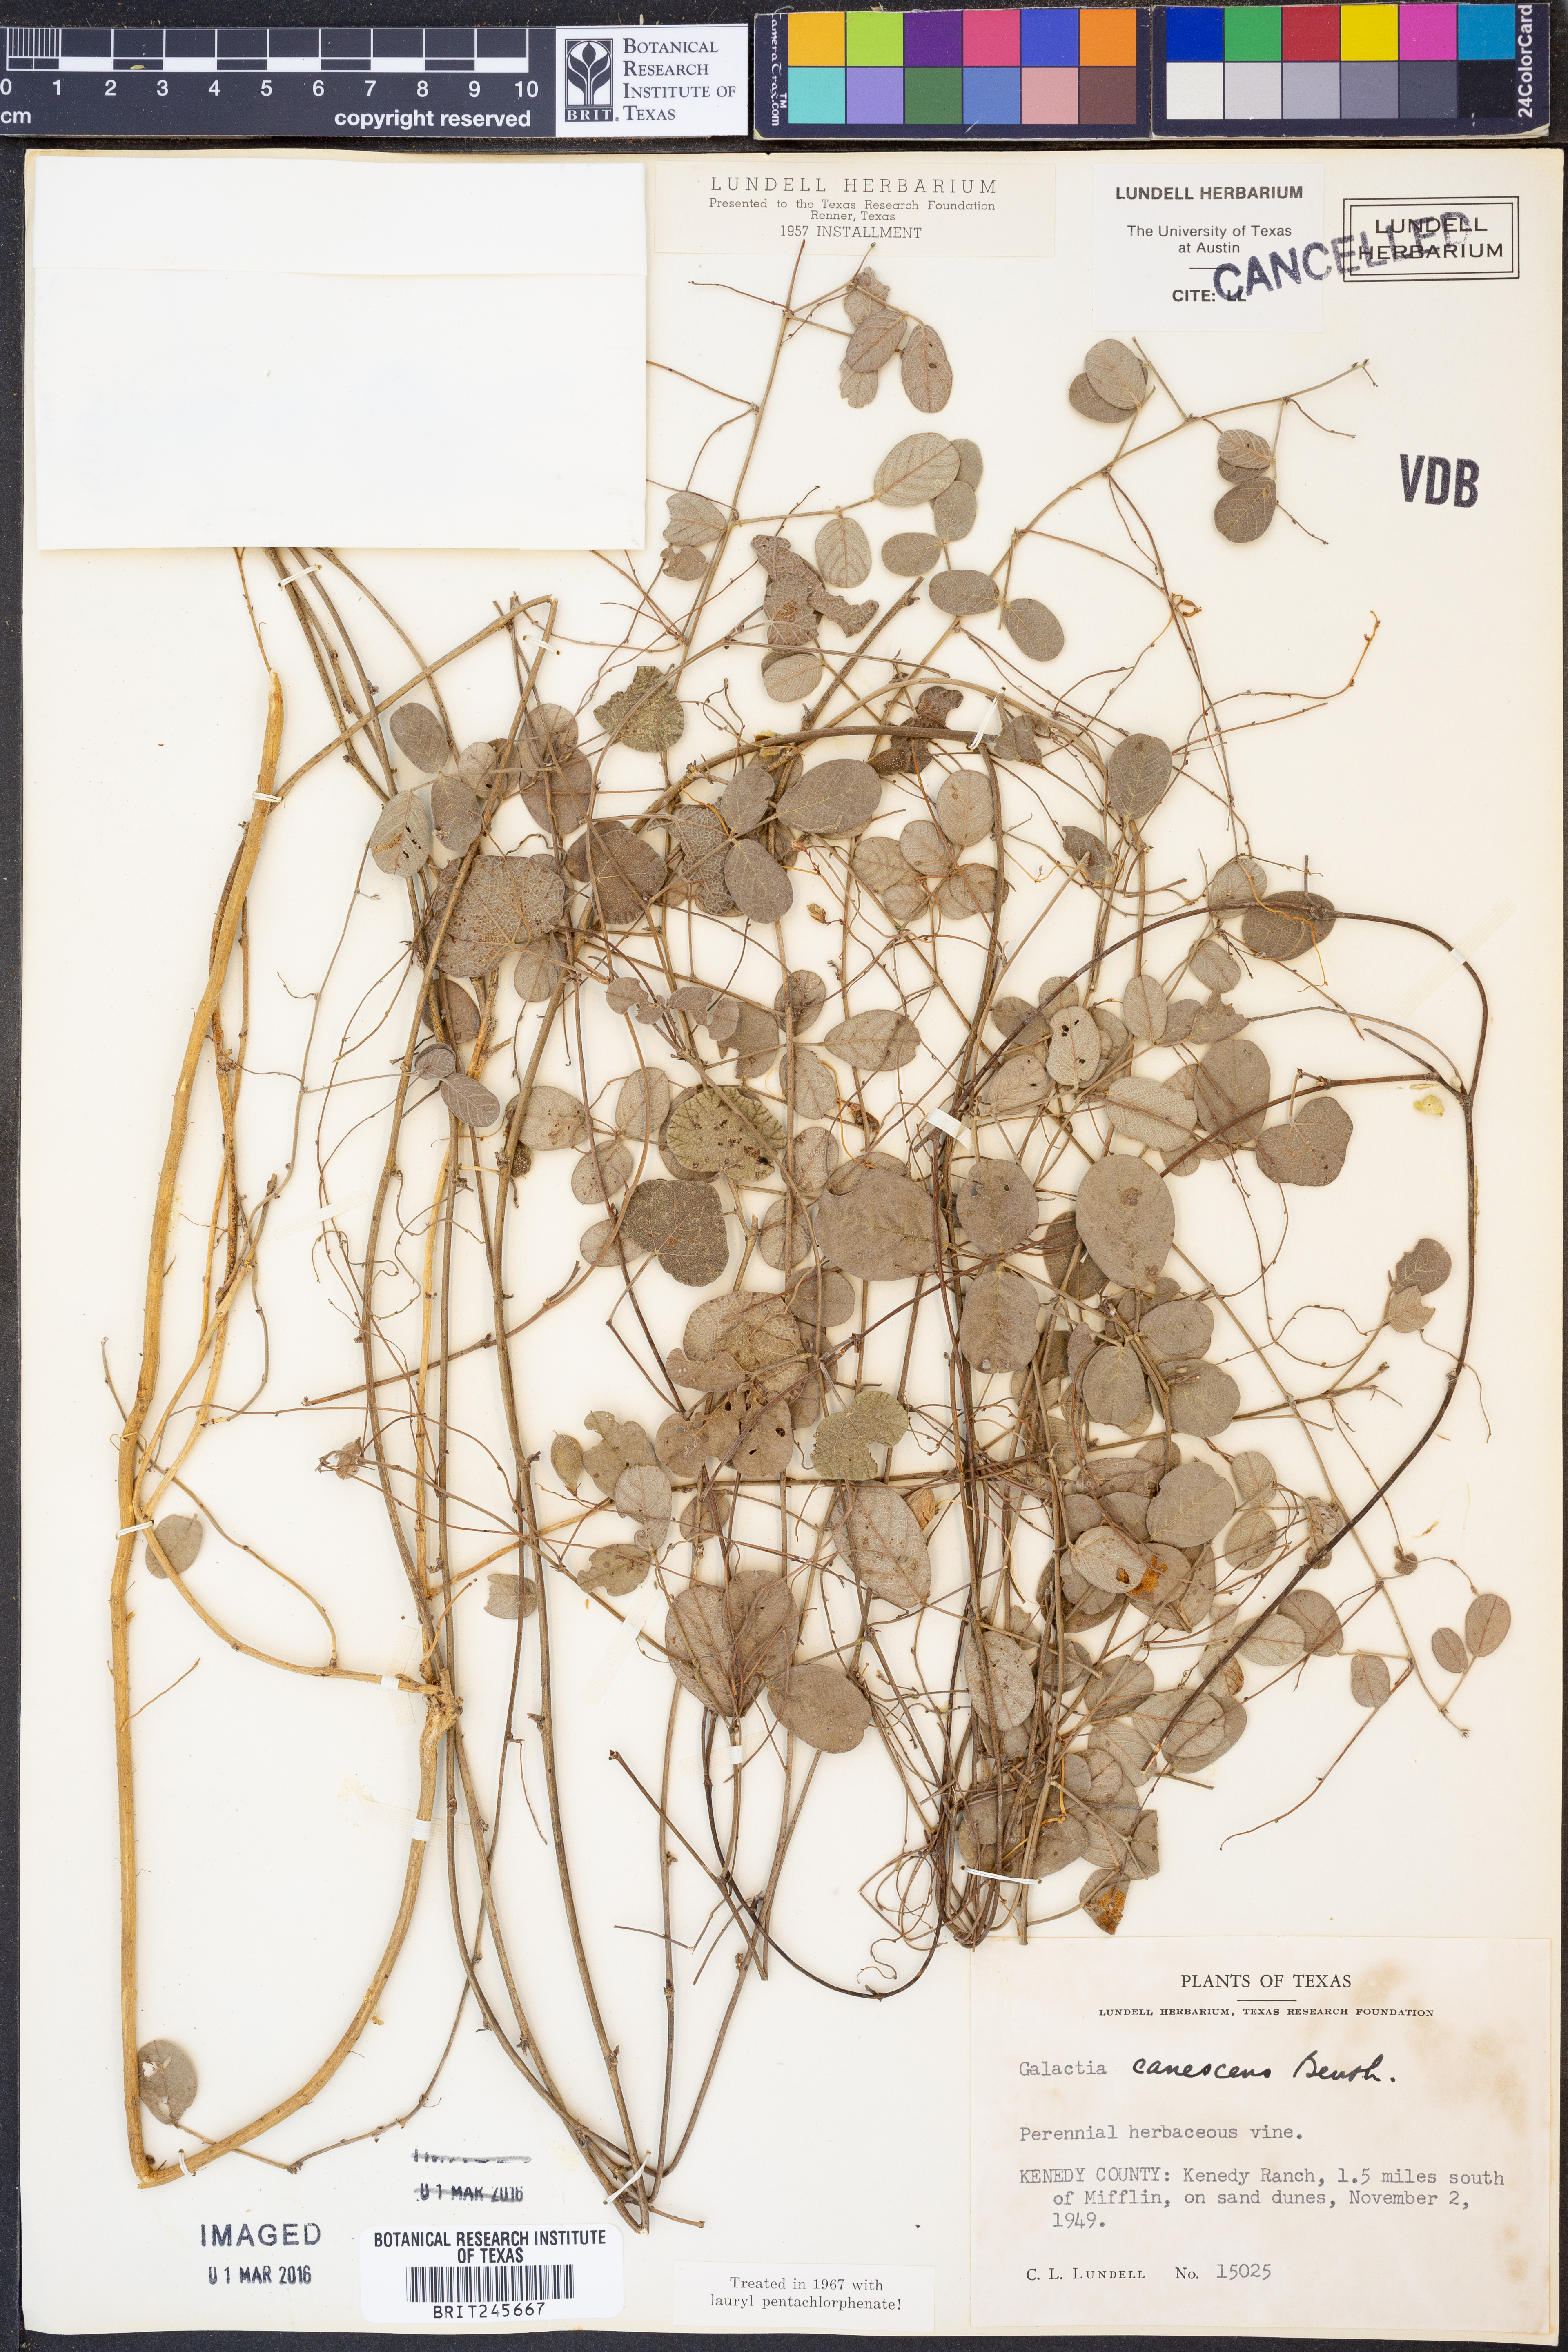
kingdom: Plantae
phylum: Tracheophyta
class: Magnoliopsida
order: Fabales
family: Fabaceae
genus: Galactia
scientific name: Galactia canescens
